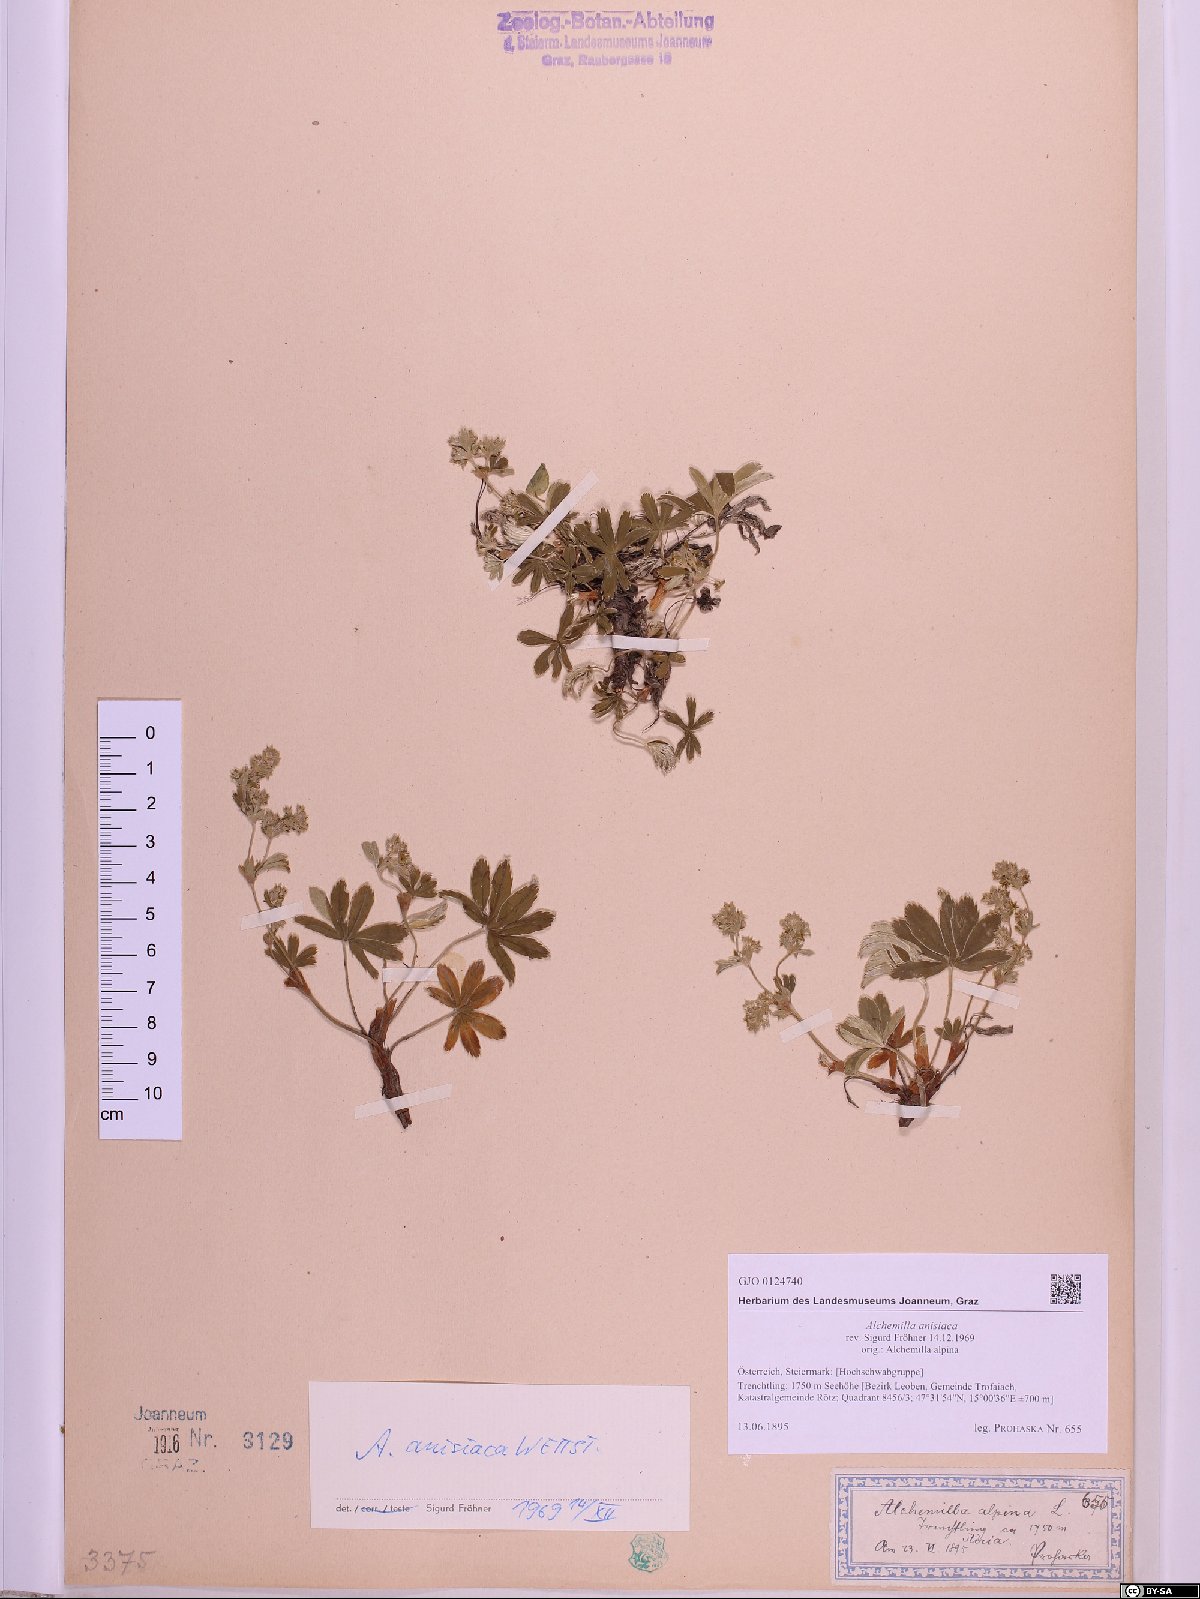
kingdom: Plantae
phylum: Tracheophyta
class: Magnoliopsida
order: Rosales
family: Rosaceae
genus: Alchemilla
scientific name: Alchemilla anisiaca
